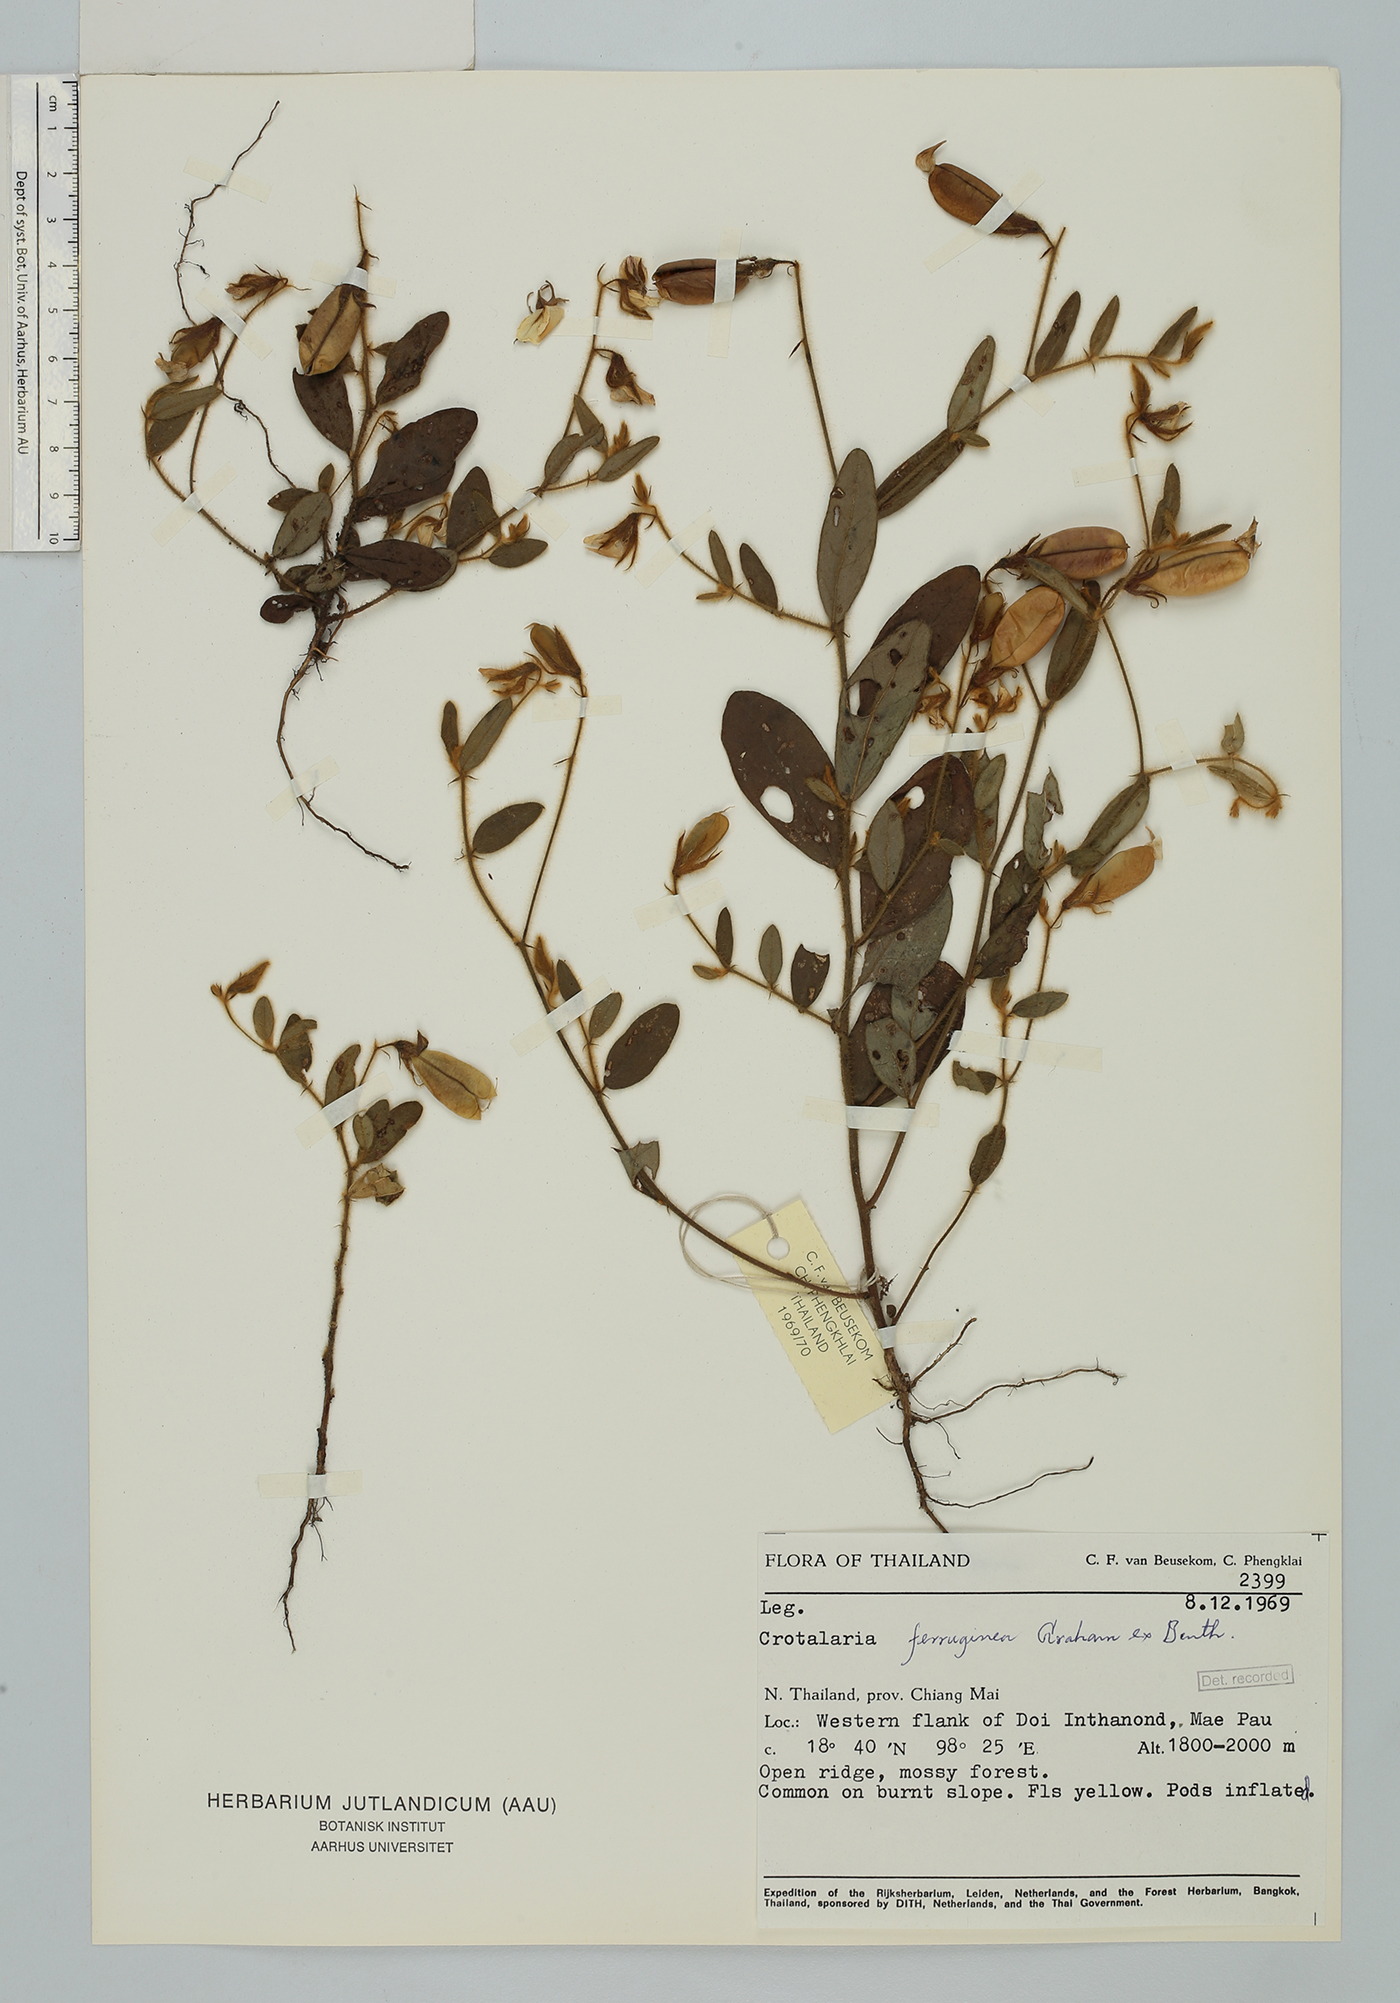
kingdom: Plantae
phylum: Tracheophyta
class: Magnoliopsida
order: Fabales
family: Fabaceae
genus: Crotalaria
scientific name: Crotalaria lejoloba
